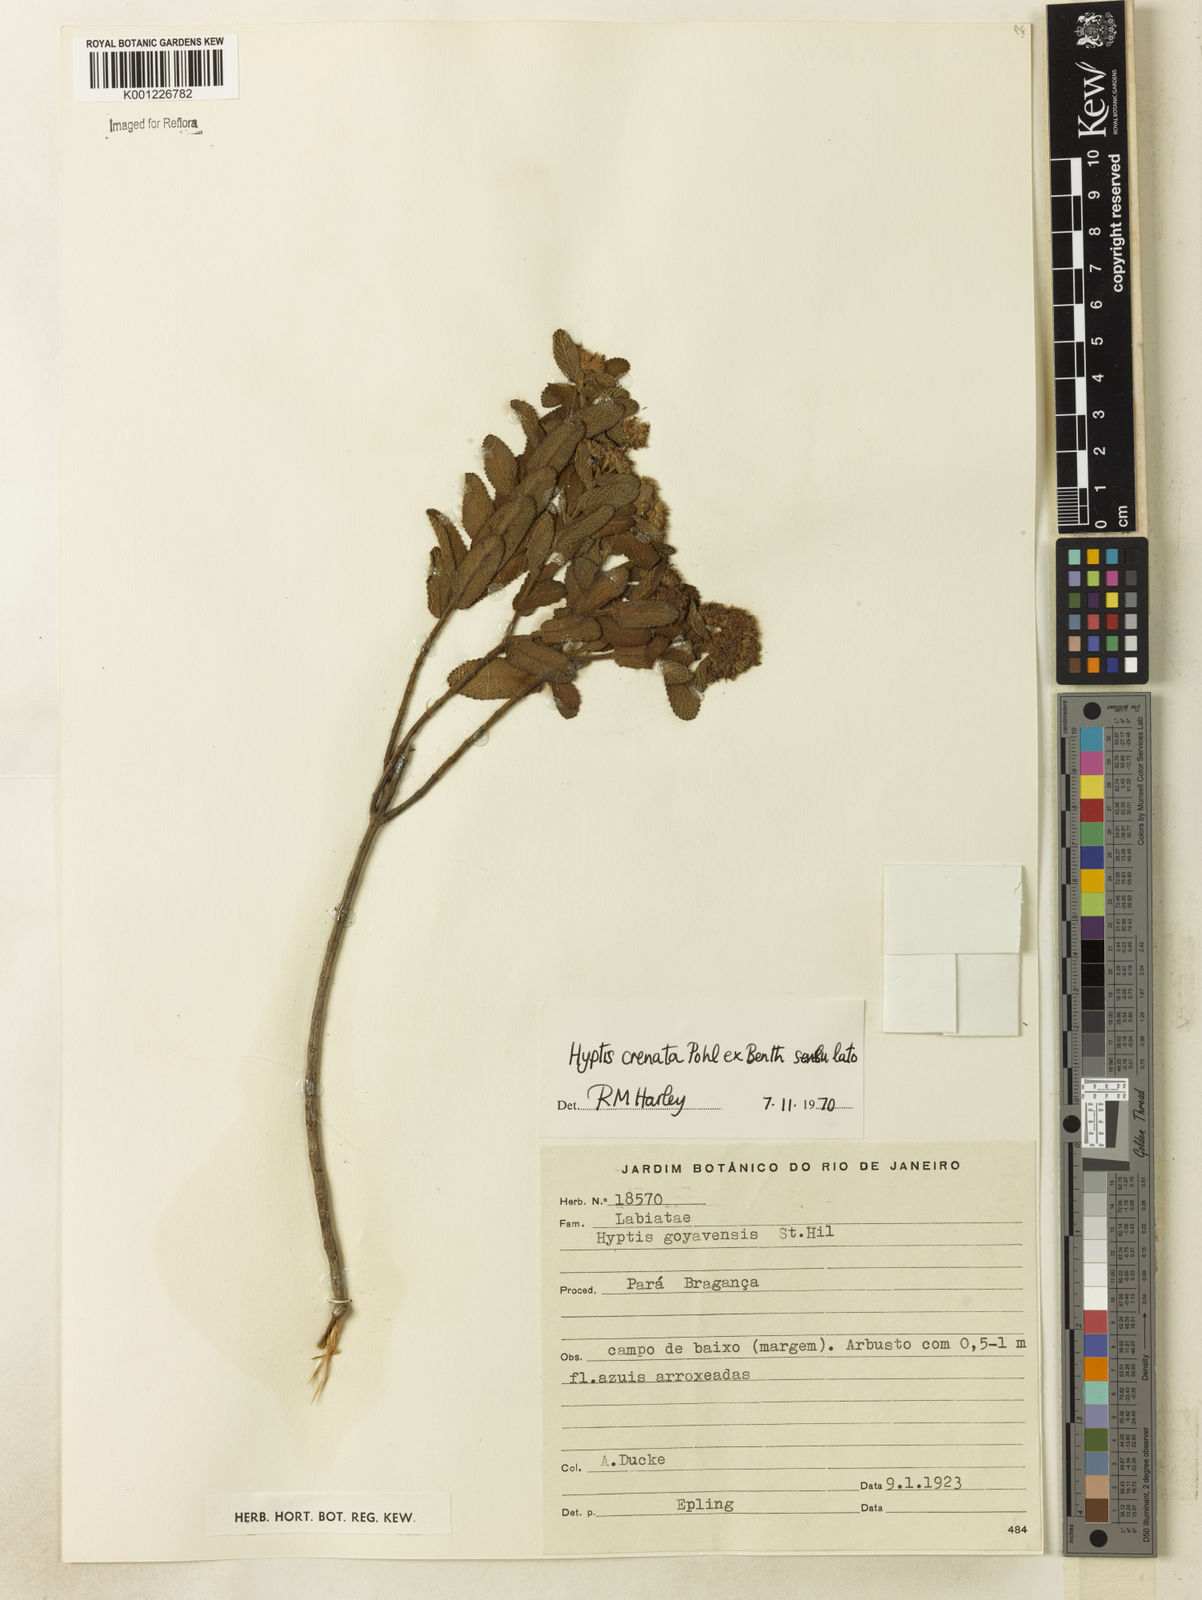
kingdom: Plantae
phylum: Tracheophyta
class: Magnoliopsida
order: Lamiales
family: Lamiaceae
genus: Hyptis
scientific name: Hyptis crenata
